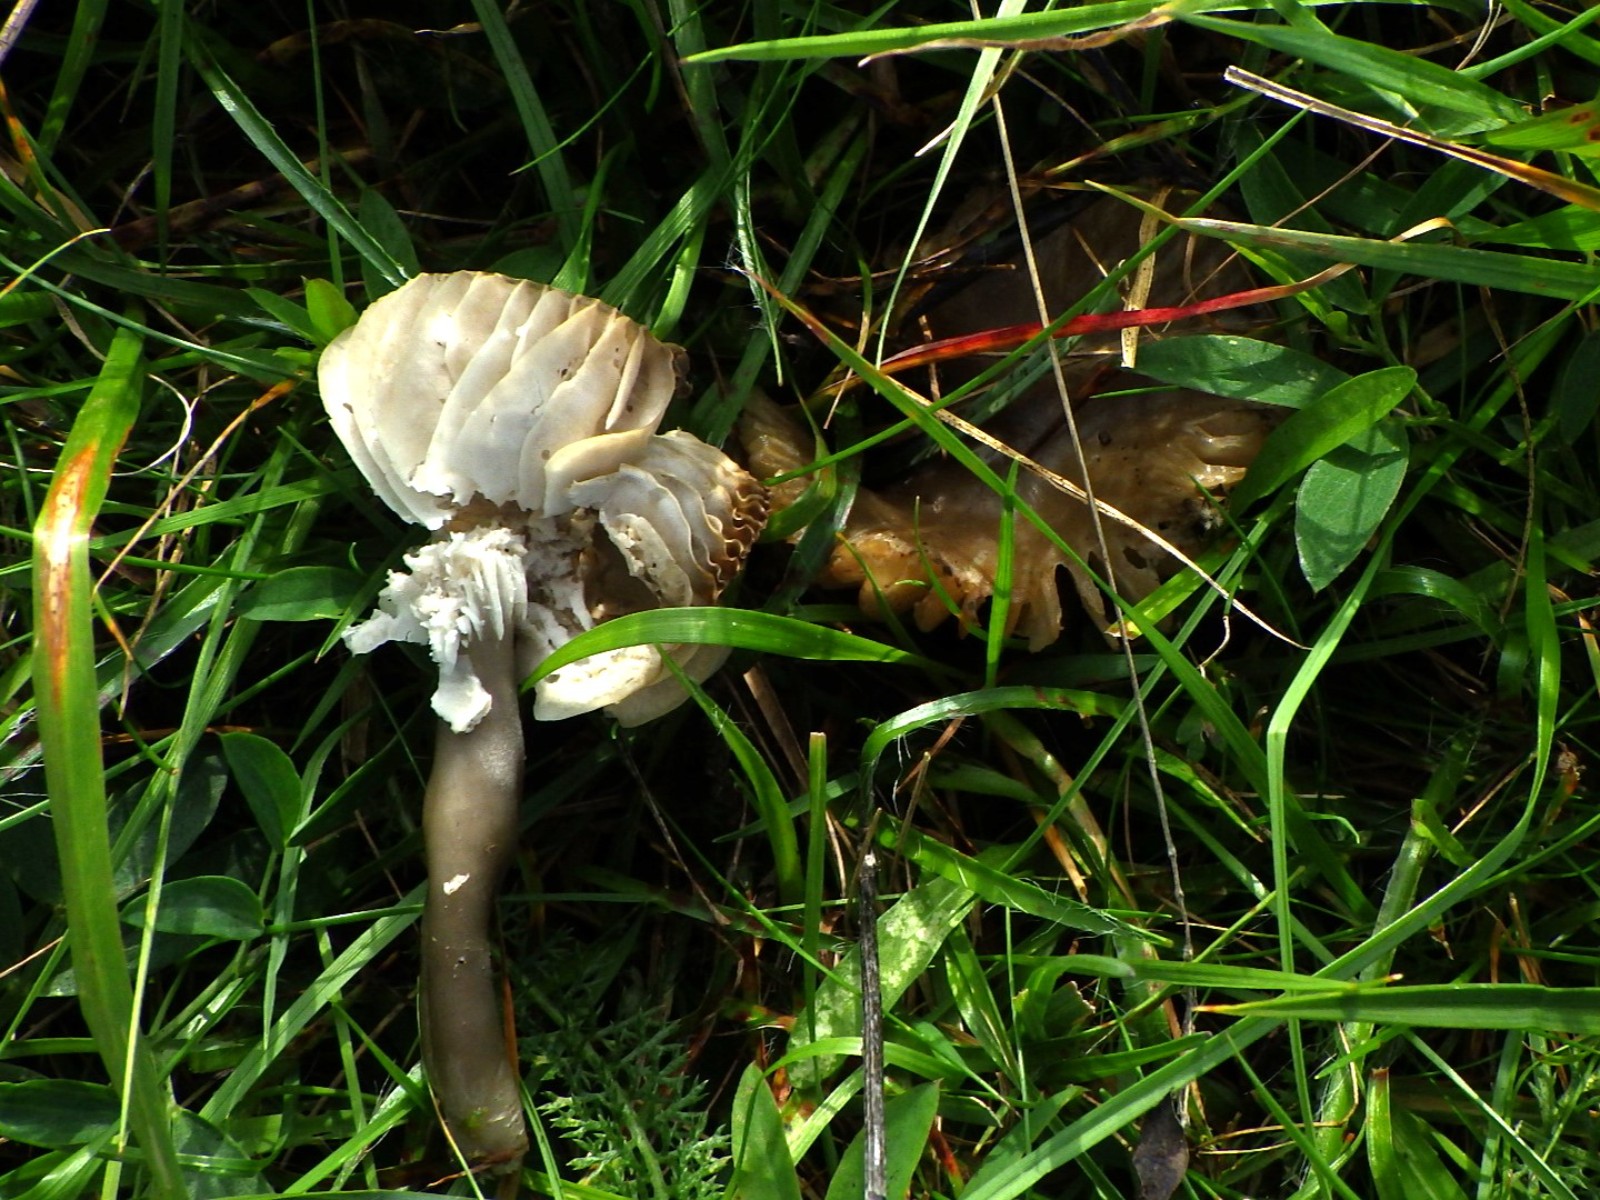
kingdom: Fungi
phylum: Basidiomycota
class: Agaricomycetes
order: Agaricales
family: Hygrophoraceae
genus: Gliophorus
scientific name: Gliophorus irrigatus
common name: slimet vokshat
